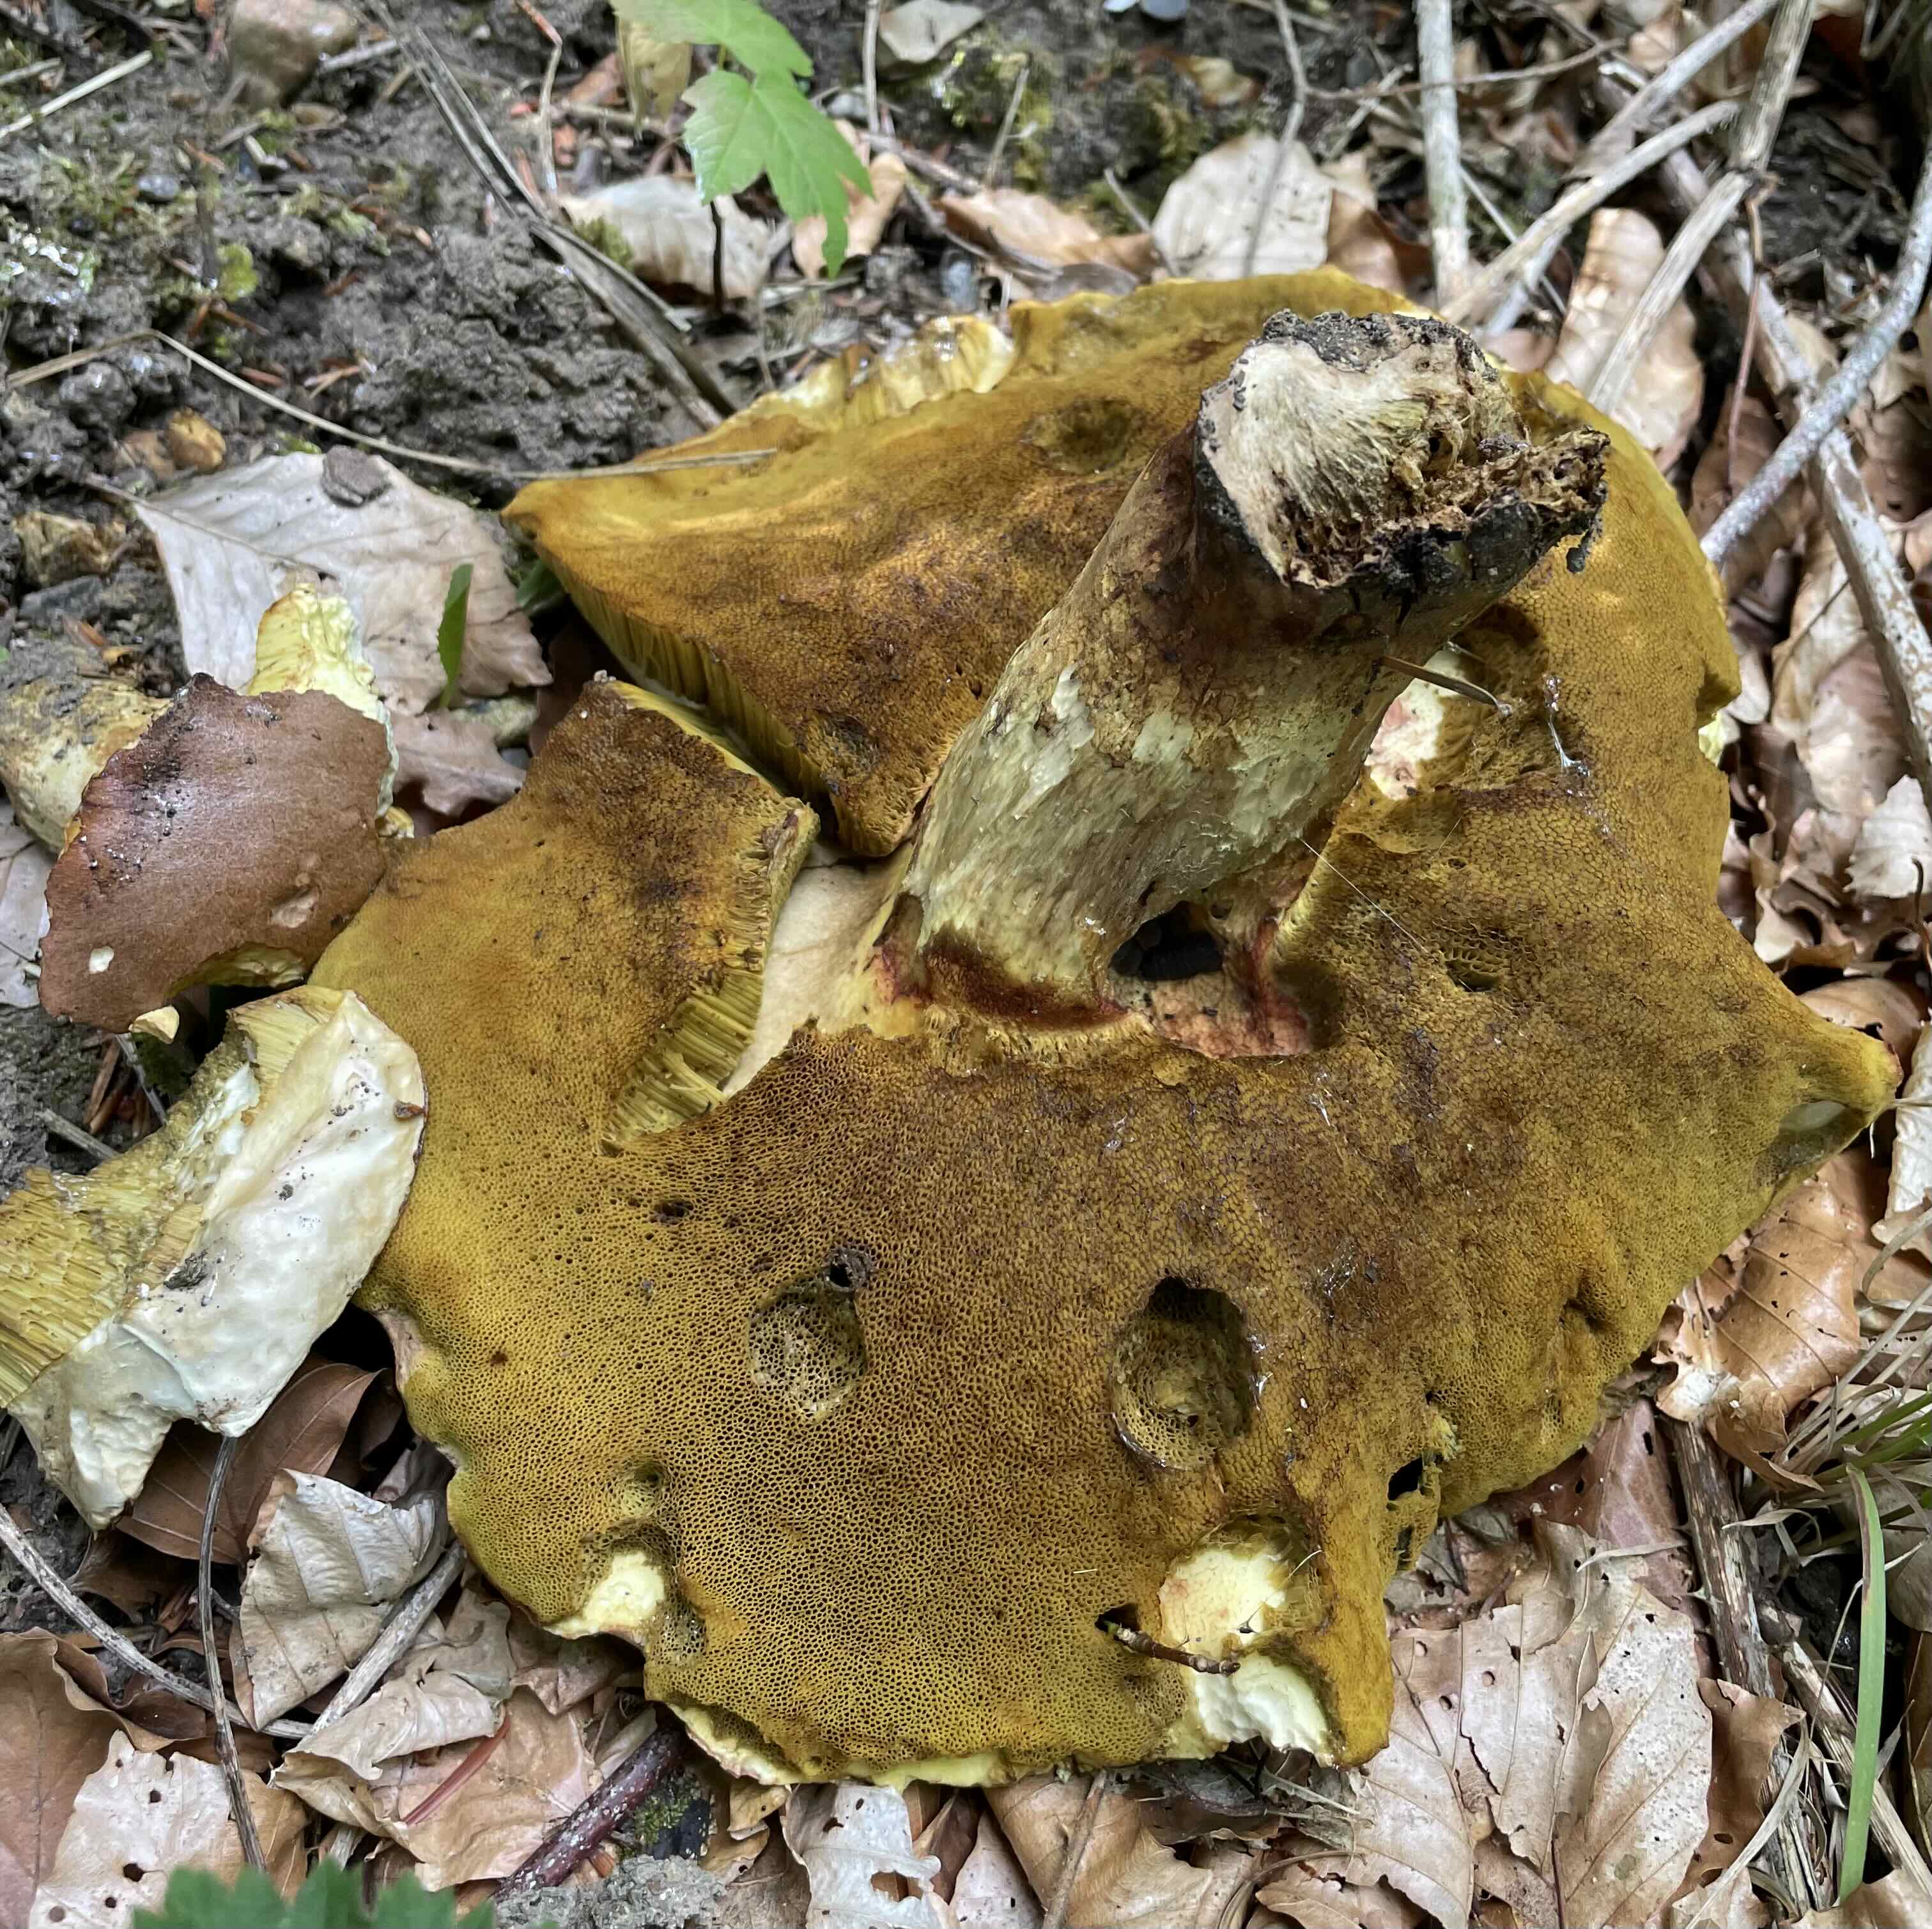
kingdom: Fungi
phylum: Basidiomycota
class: Agaricomycetes
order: Boletales
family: Boletaceae
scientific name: Boletaceae
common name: rørhatfamilien
